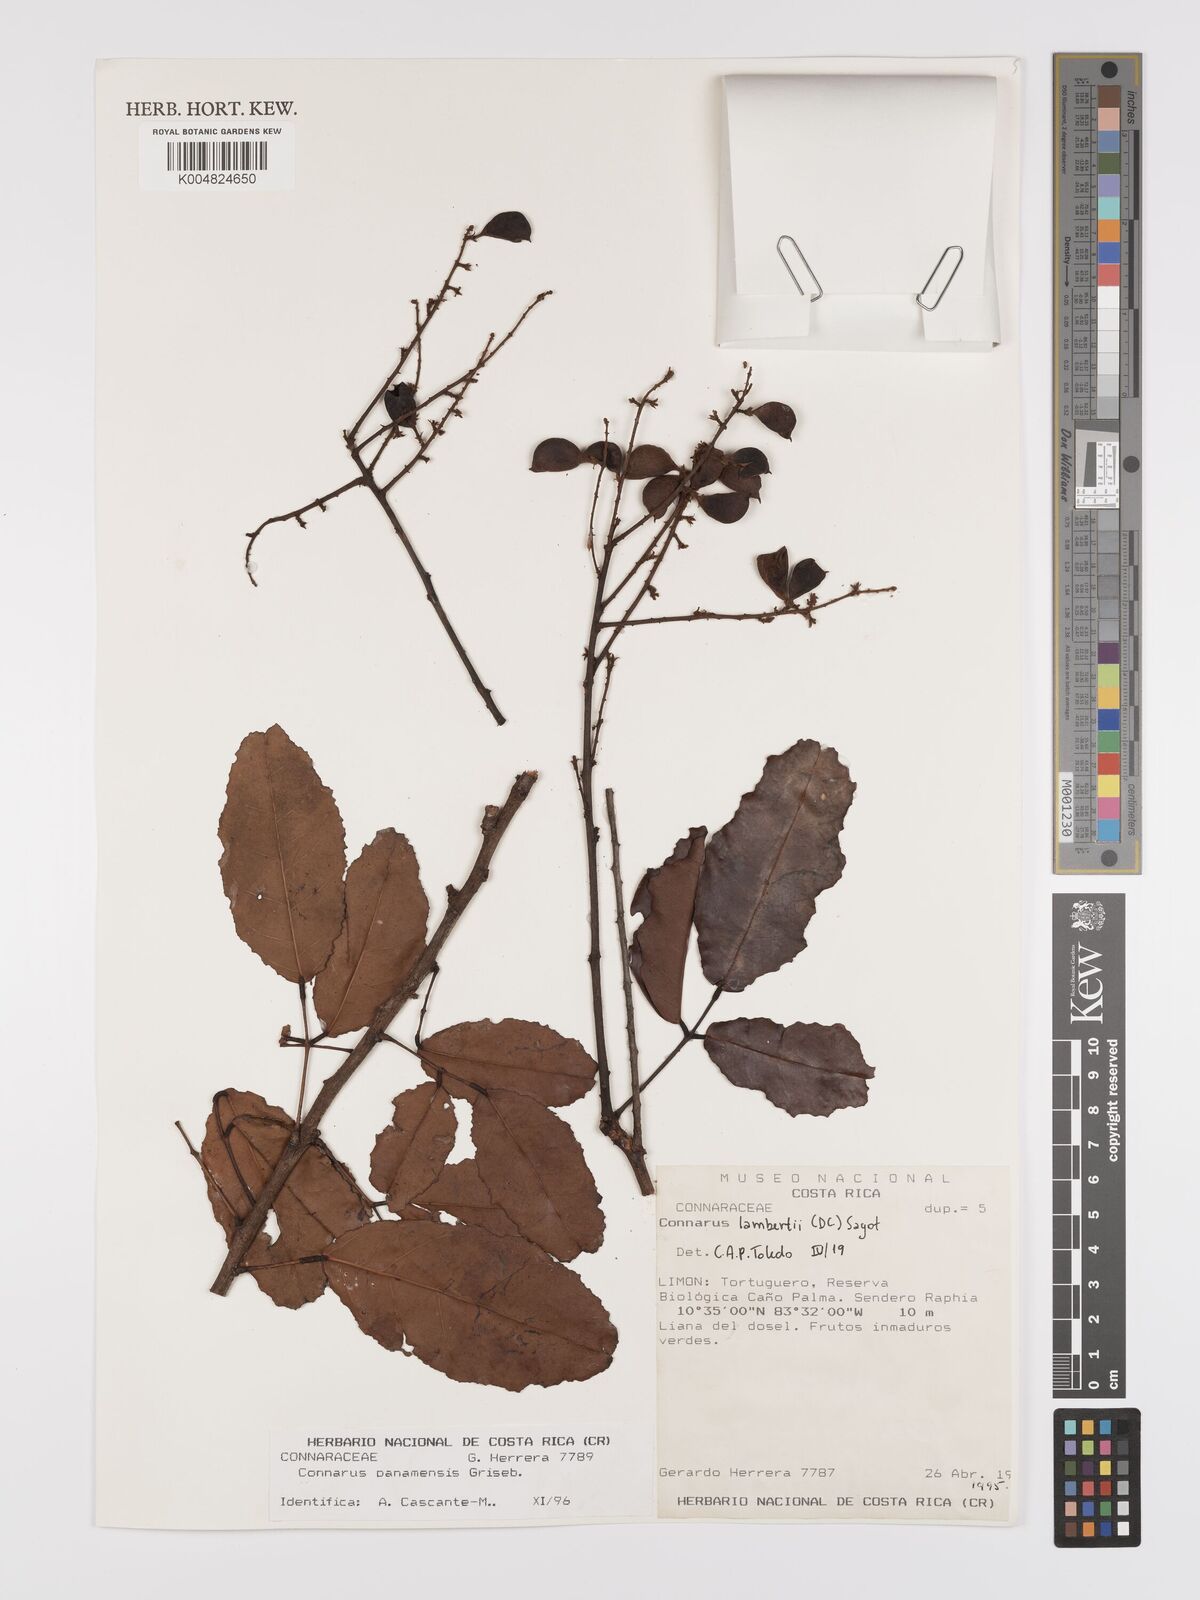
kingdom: Plantae
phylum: Tracheophyta
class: Magnoliopsida
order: Oxalidales
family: Connaraceae
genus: Connarus
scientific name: Connarus lambertii
